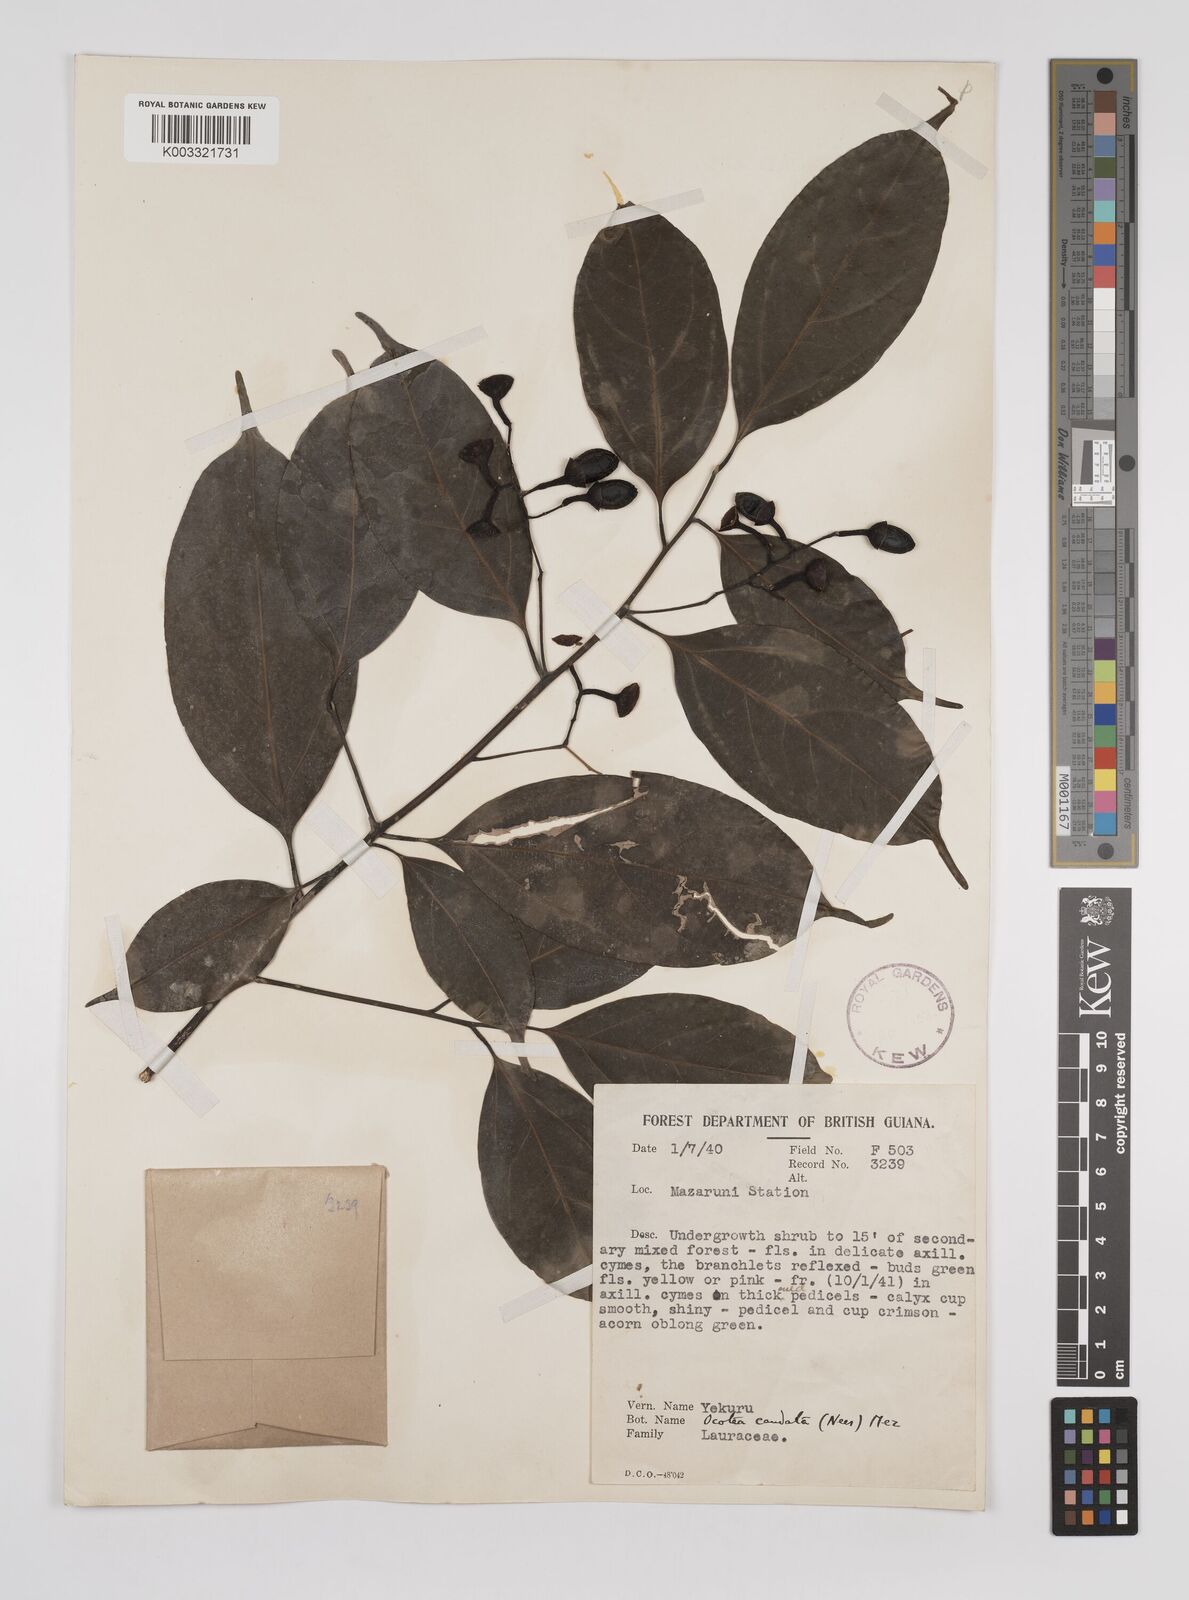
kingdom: Plantae
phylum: Tracheophyta
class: Magnoliopsida
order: Laurales
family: Lauraceae
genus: Ocotea
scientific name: Ocotea leptobotra
